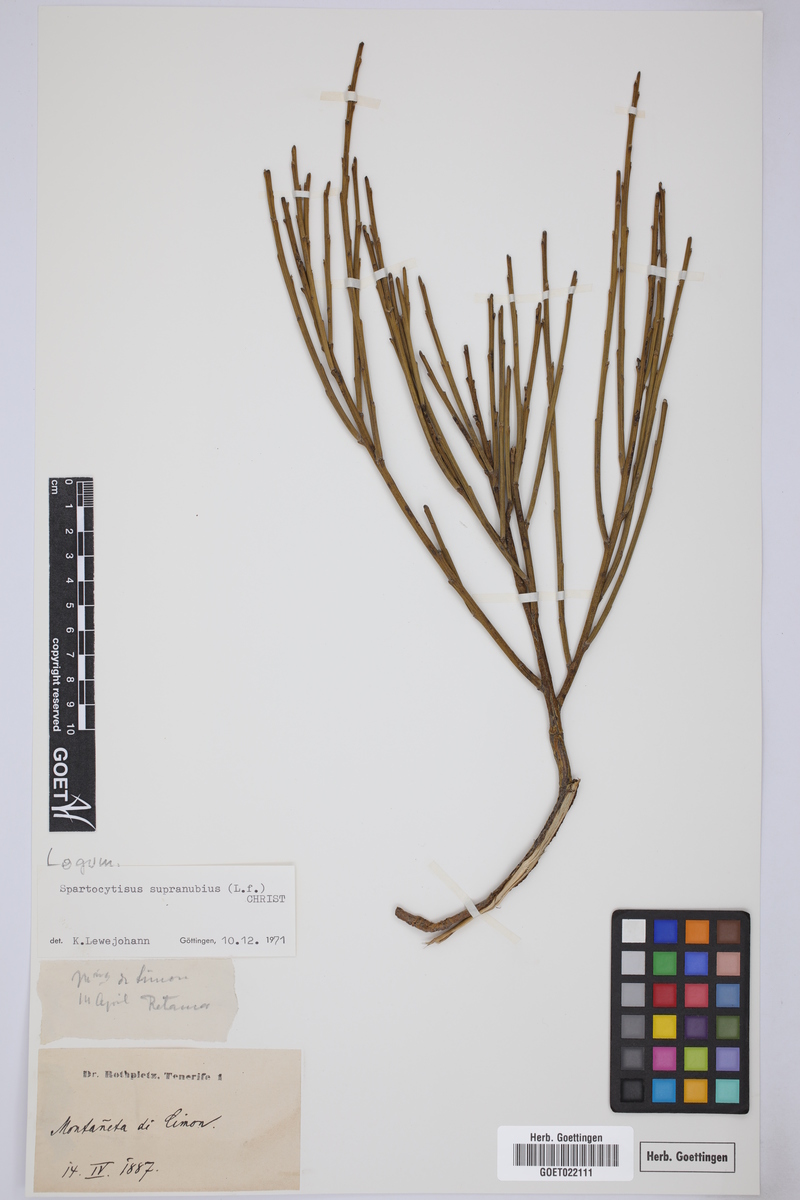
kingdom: Plantae
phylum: Tracheophyta
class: Magnoliopsida
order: Fabales
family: Fabaceae
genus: Cytisus
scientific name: Cytisus supranubius
